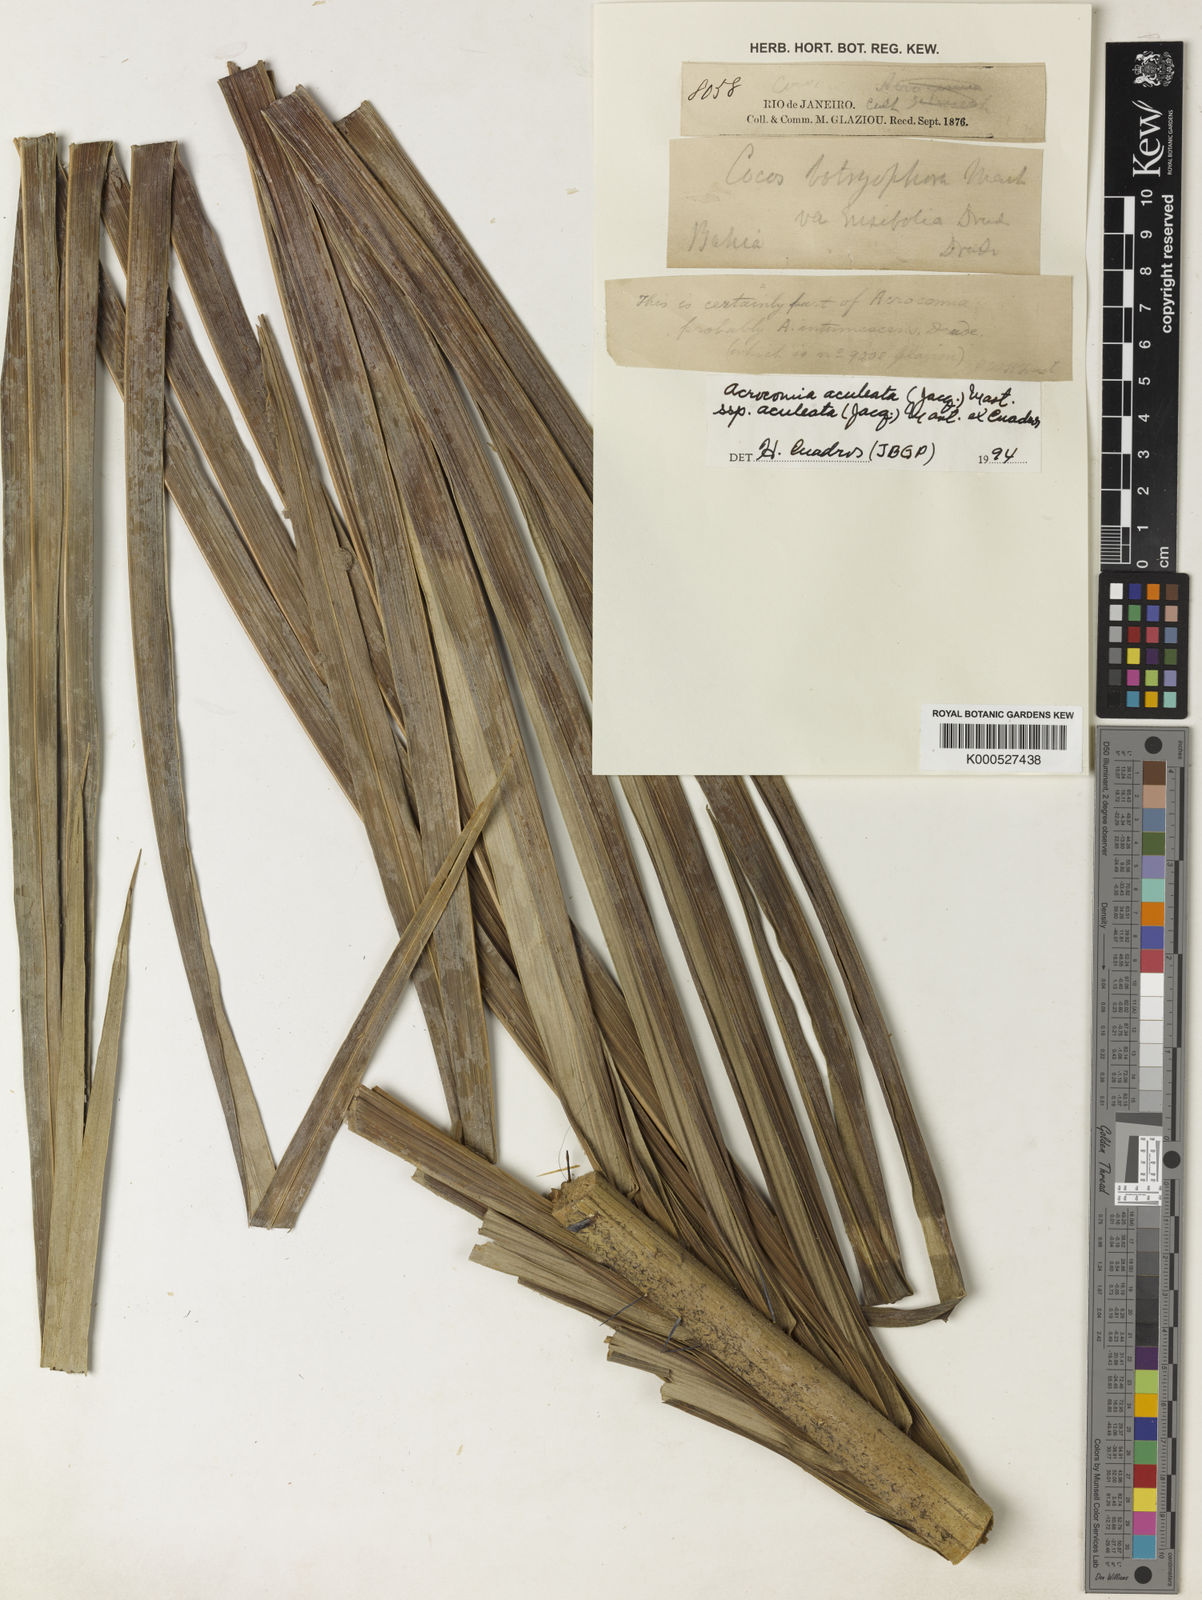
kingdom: Plantae
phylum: Tracheophyta
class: Liliopsida
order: Arecales
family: Arecaceae
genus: Acrocomia
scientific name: Acrocomia aculeata
